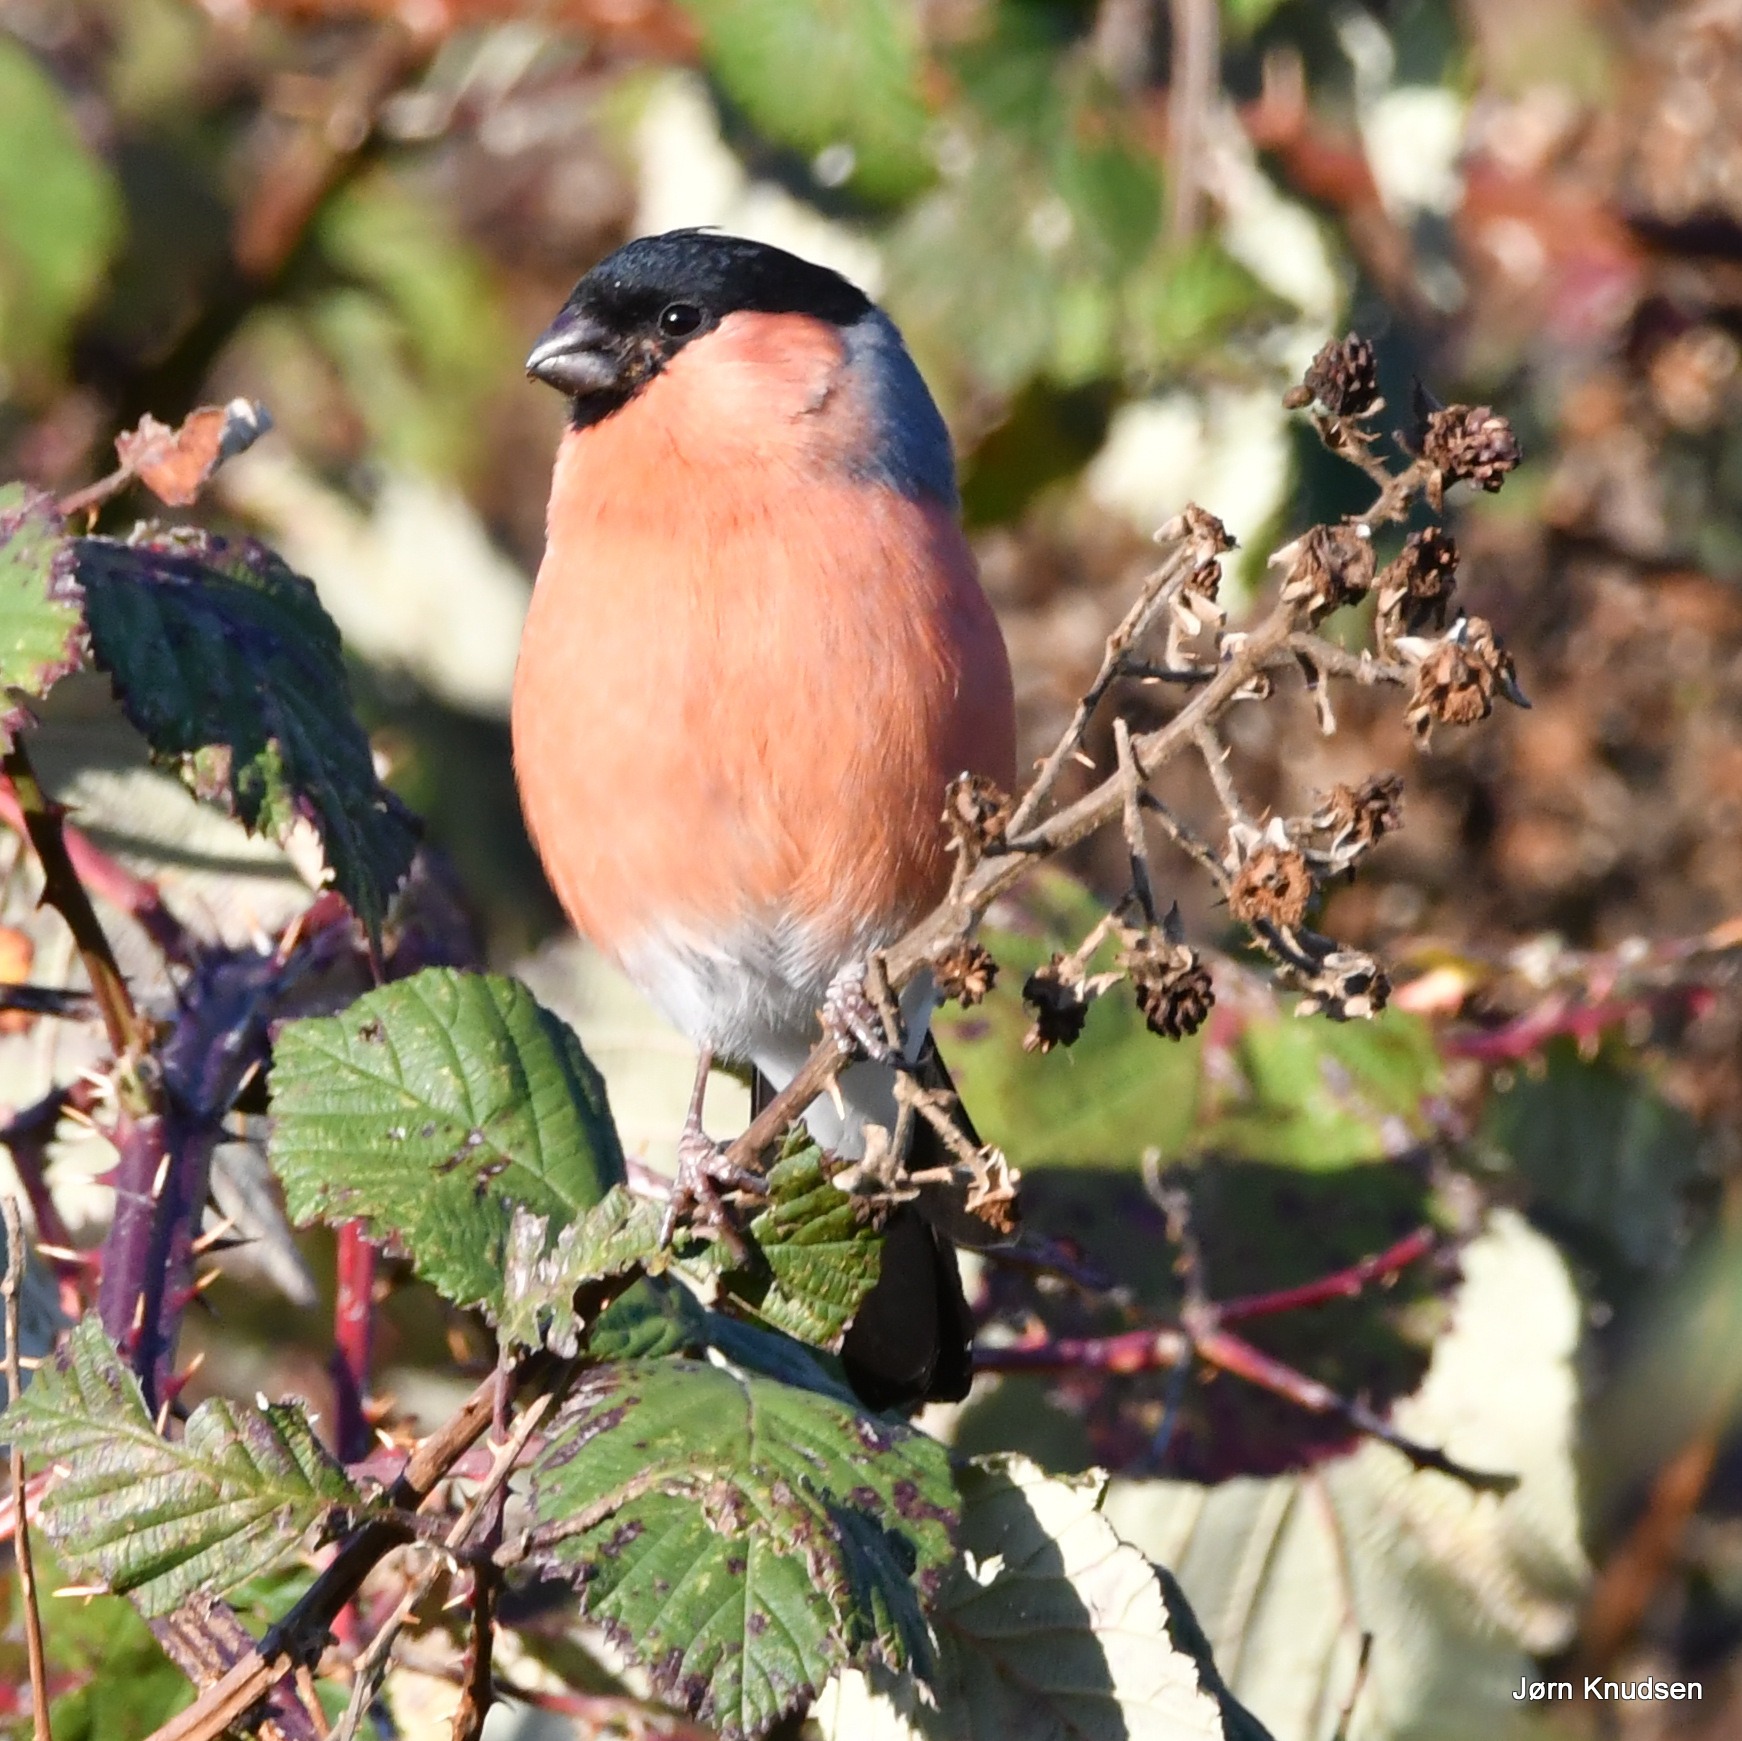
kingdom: Animalia
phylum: Chordata
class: Aves
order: Passeriformes
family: Fringillidae
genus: Pyrrhula
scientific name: Pyrrhula pyrrhula
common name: Dompap
